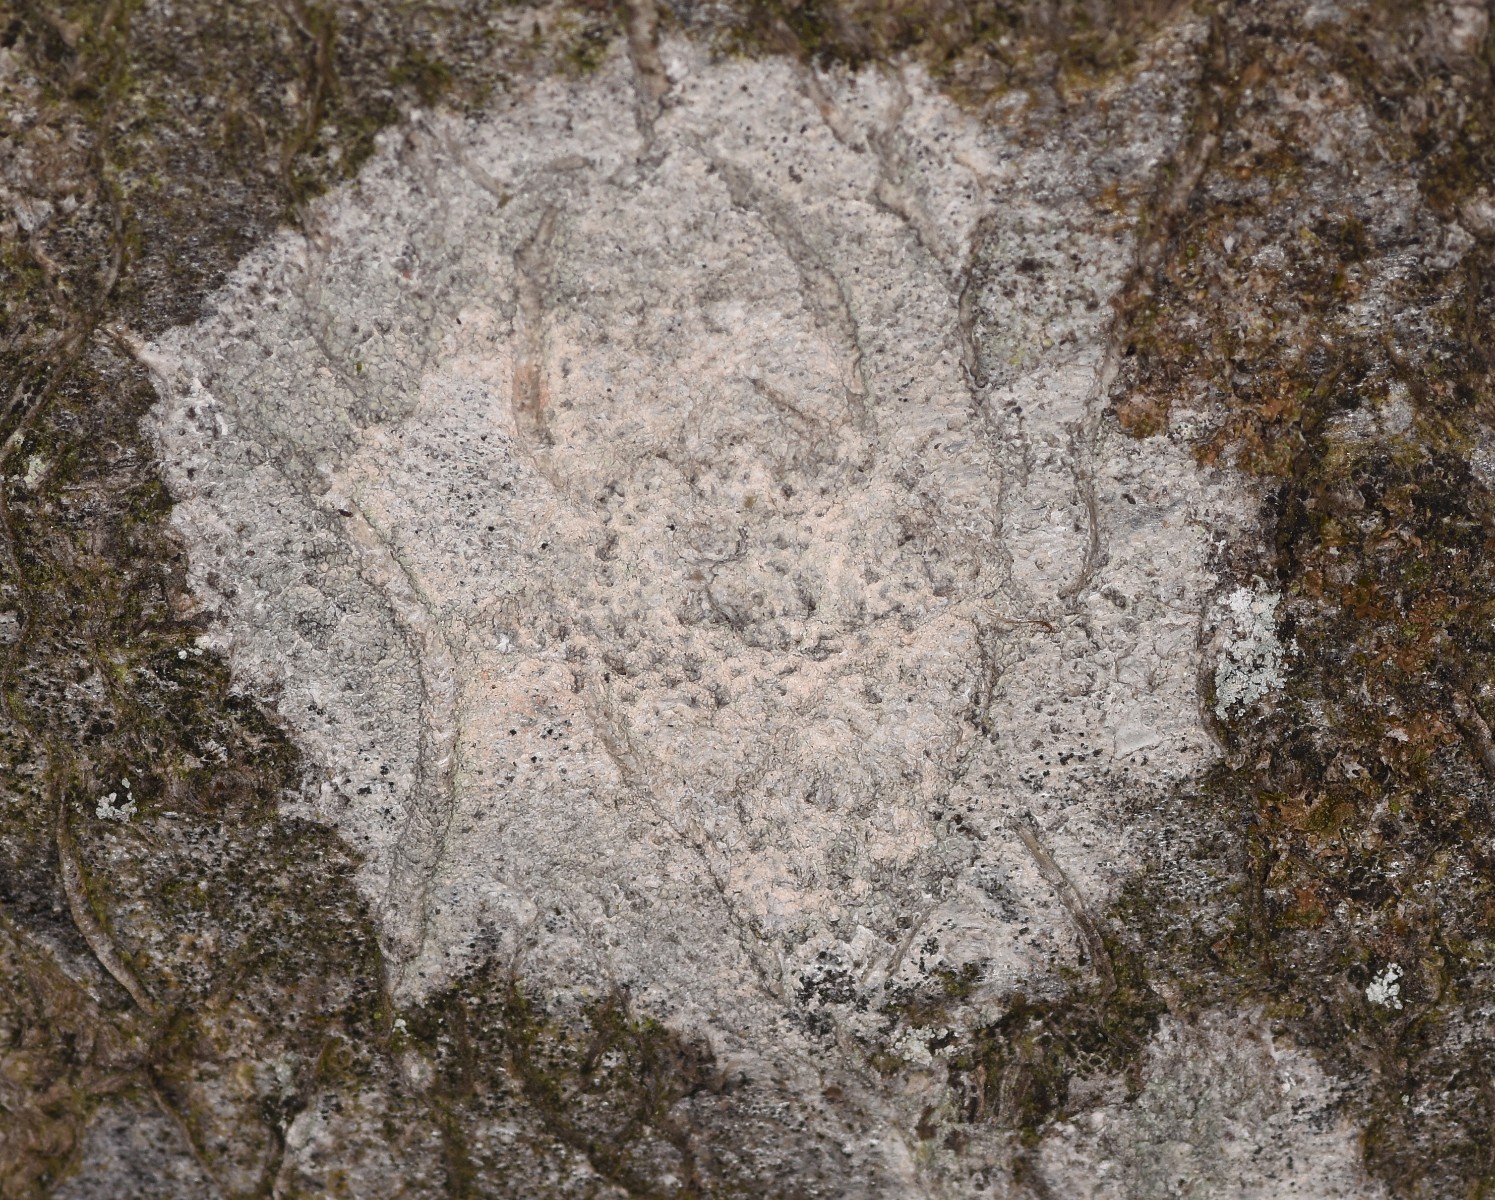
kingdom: Fungi
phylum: Ascomycota
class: Lecanoromycetes
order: Ostropales
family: Phlyctidaceae
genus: Phlyctis
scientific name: Phlyctis argena
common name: almindelig sølvlav
